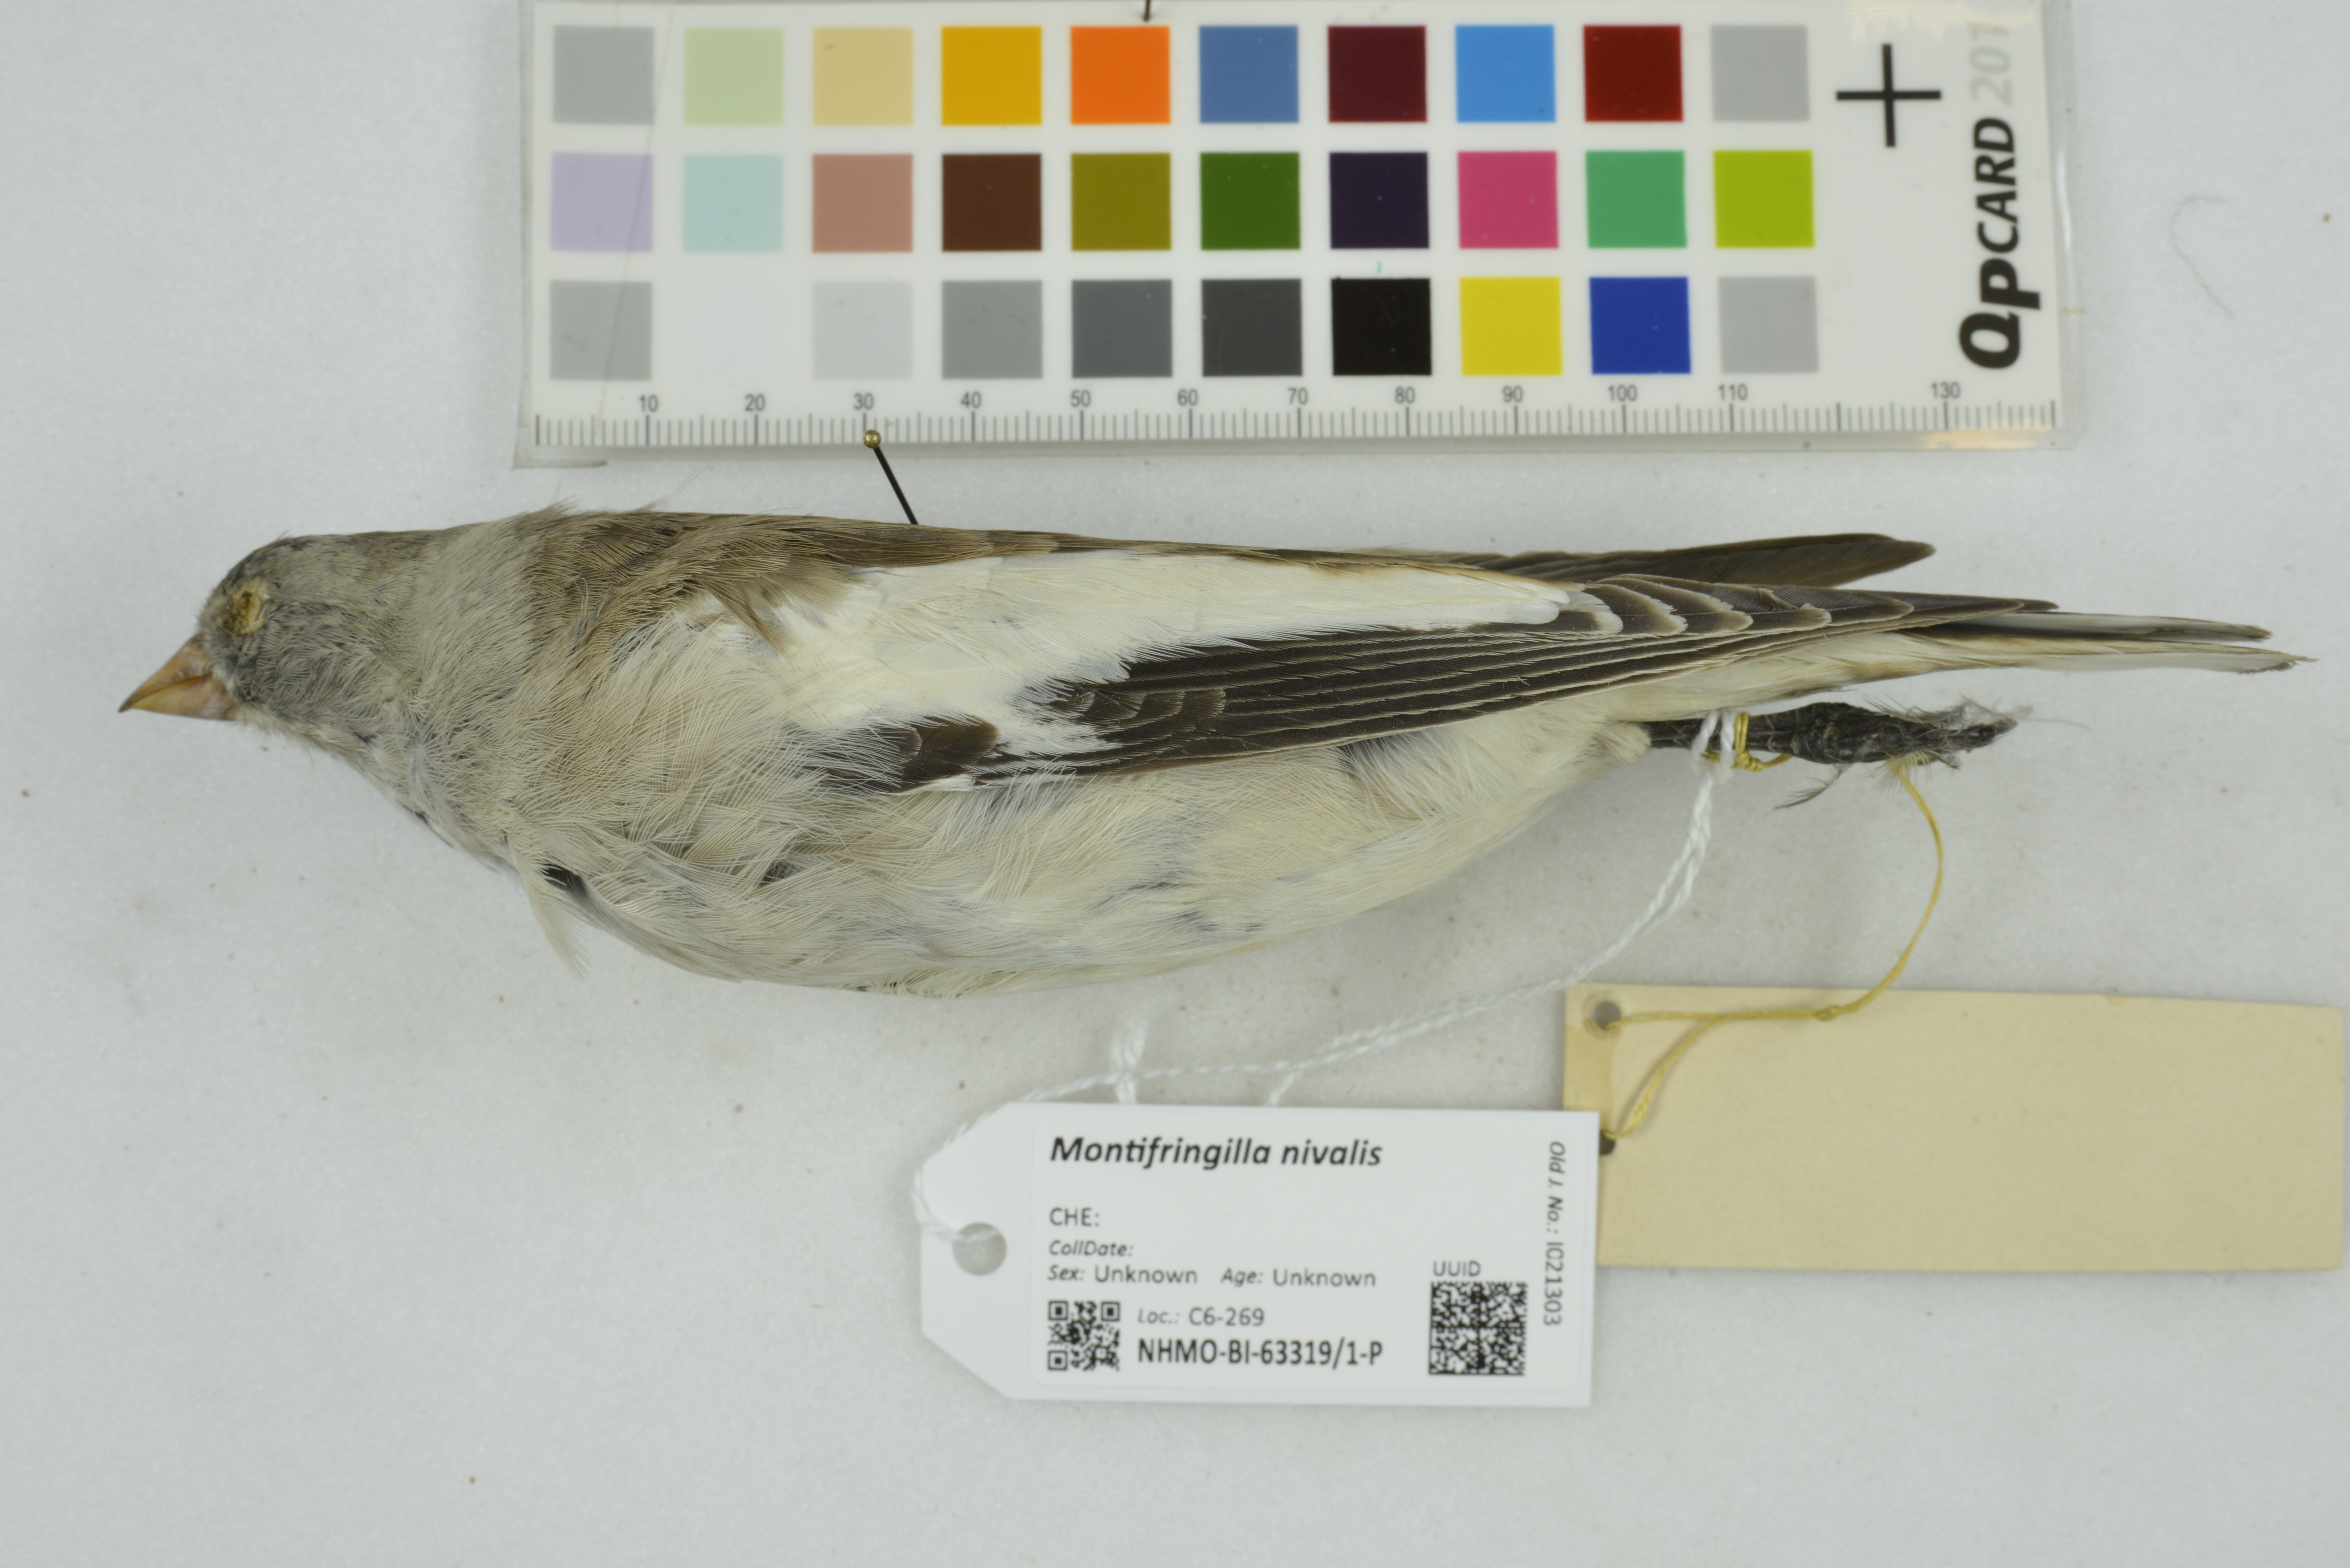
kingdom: Animalia
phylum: Chordata
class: Aves
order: Passeriformes
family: Passeridae
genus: Montifringilla
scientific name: Montifringilla nivalis
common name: White-winged snowfinch
